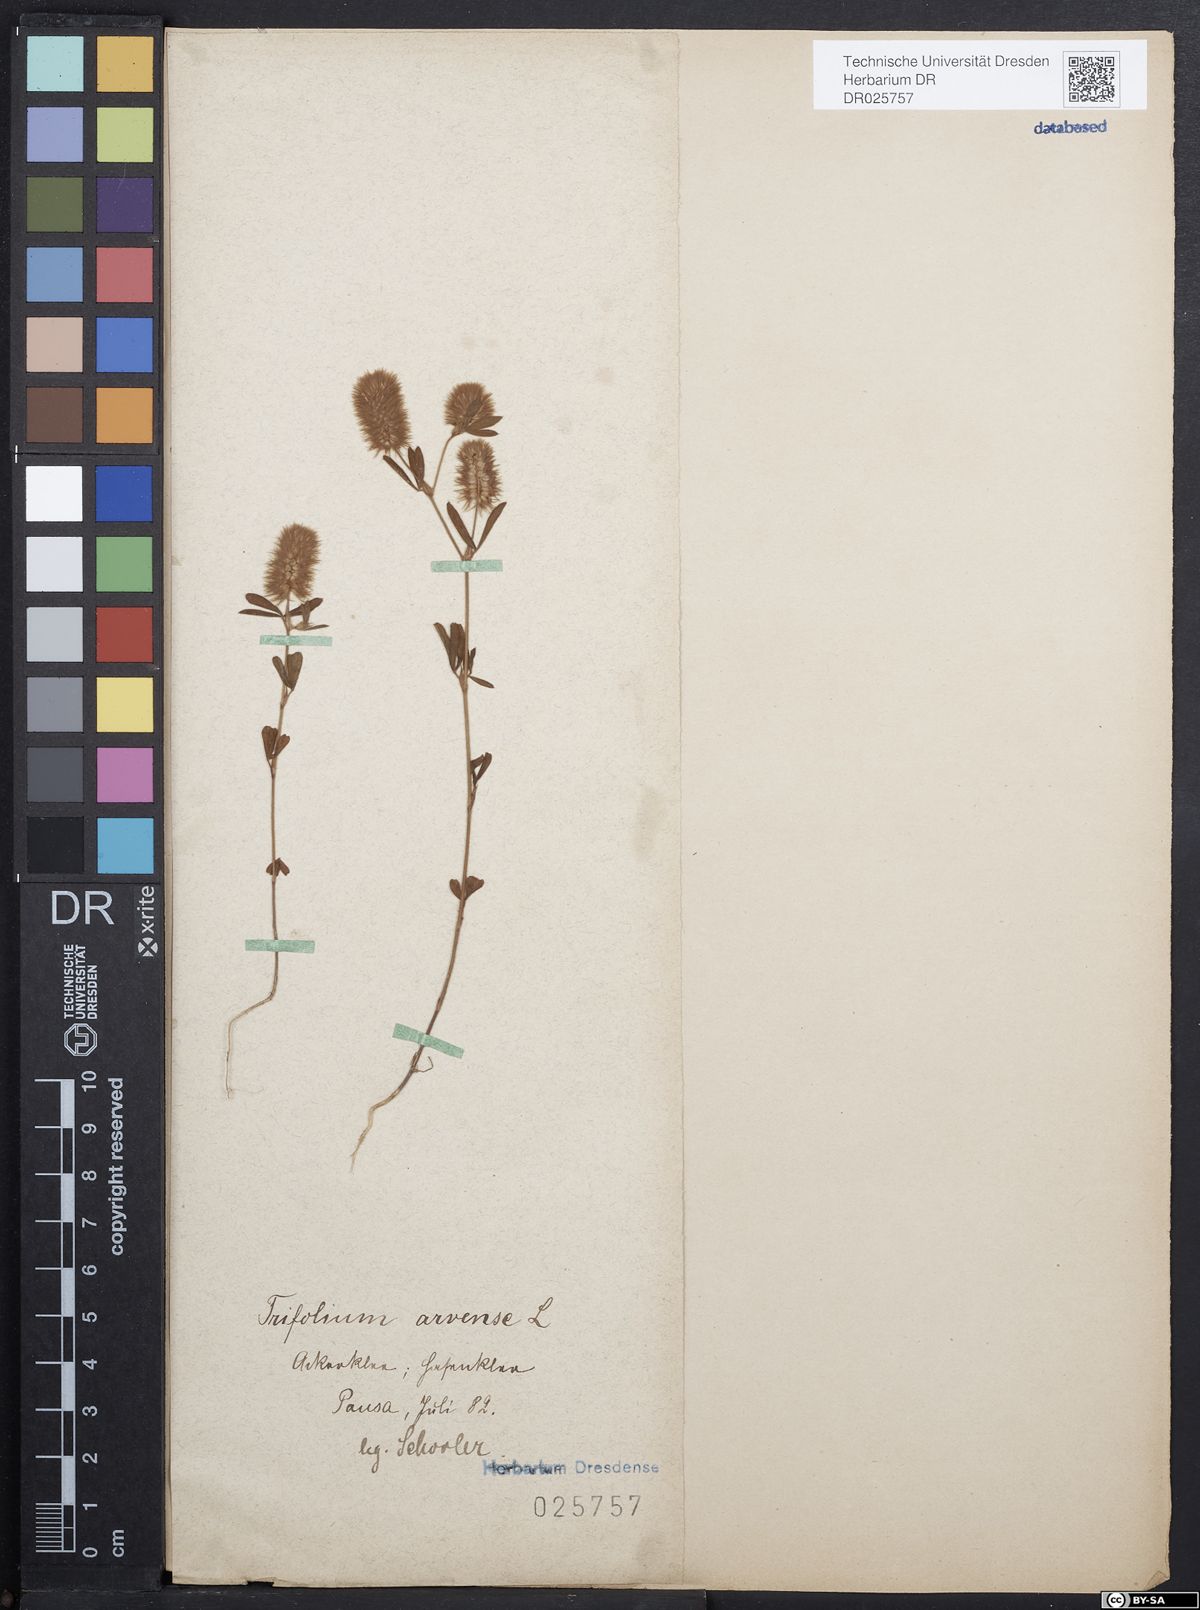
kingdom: Plantae
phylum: Tracheophyta
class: Magnoliopsida
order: Fabales
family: Fabaceae
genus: Trifolium
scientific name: Trifolium arvense
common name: Hare's-foot clover
